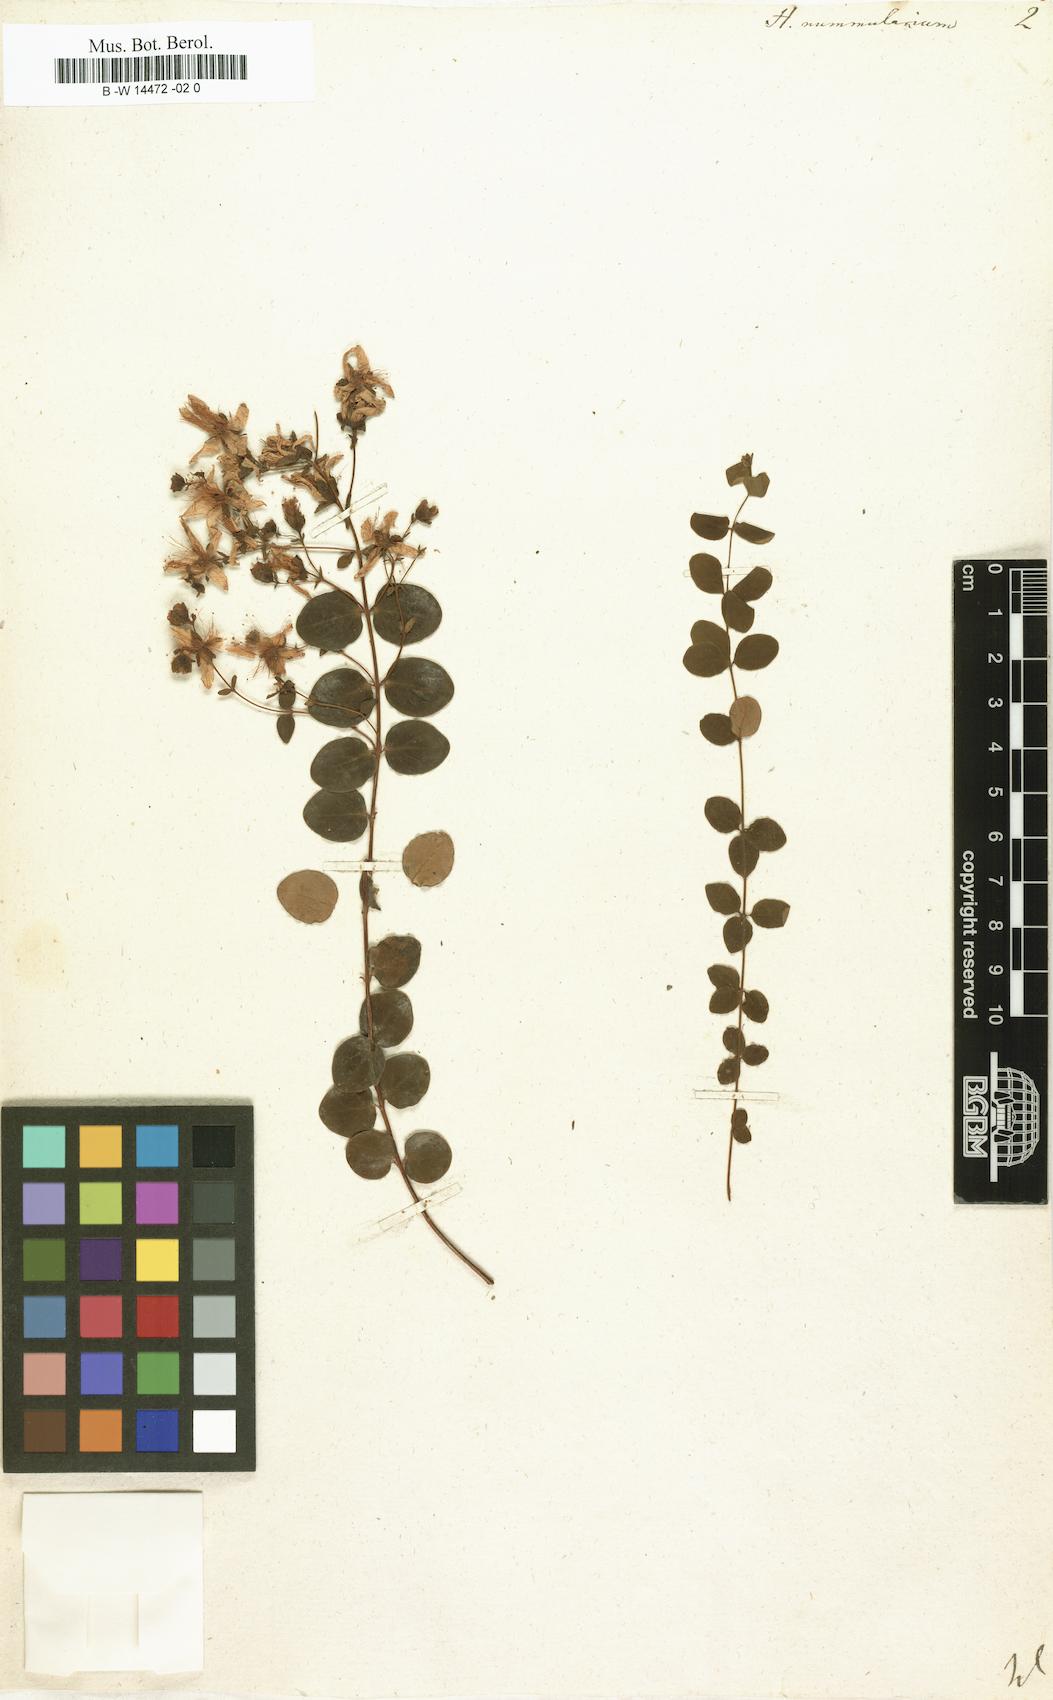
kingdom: Plantae
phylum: Tracheophyta
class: Magnoliopsida
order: Malpighiales
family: Hypericaceae
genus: Hypericum
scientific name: Hypericum nummularium
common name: Round-leaved st john's-wort
